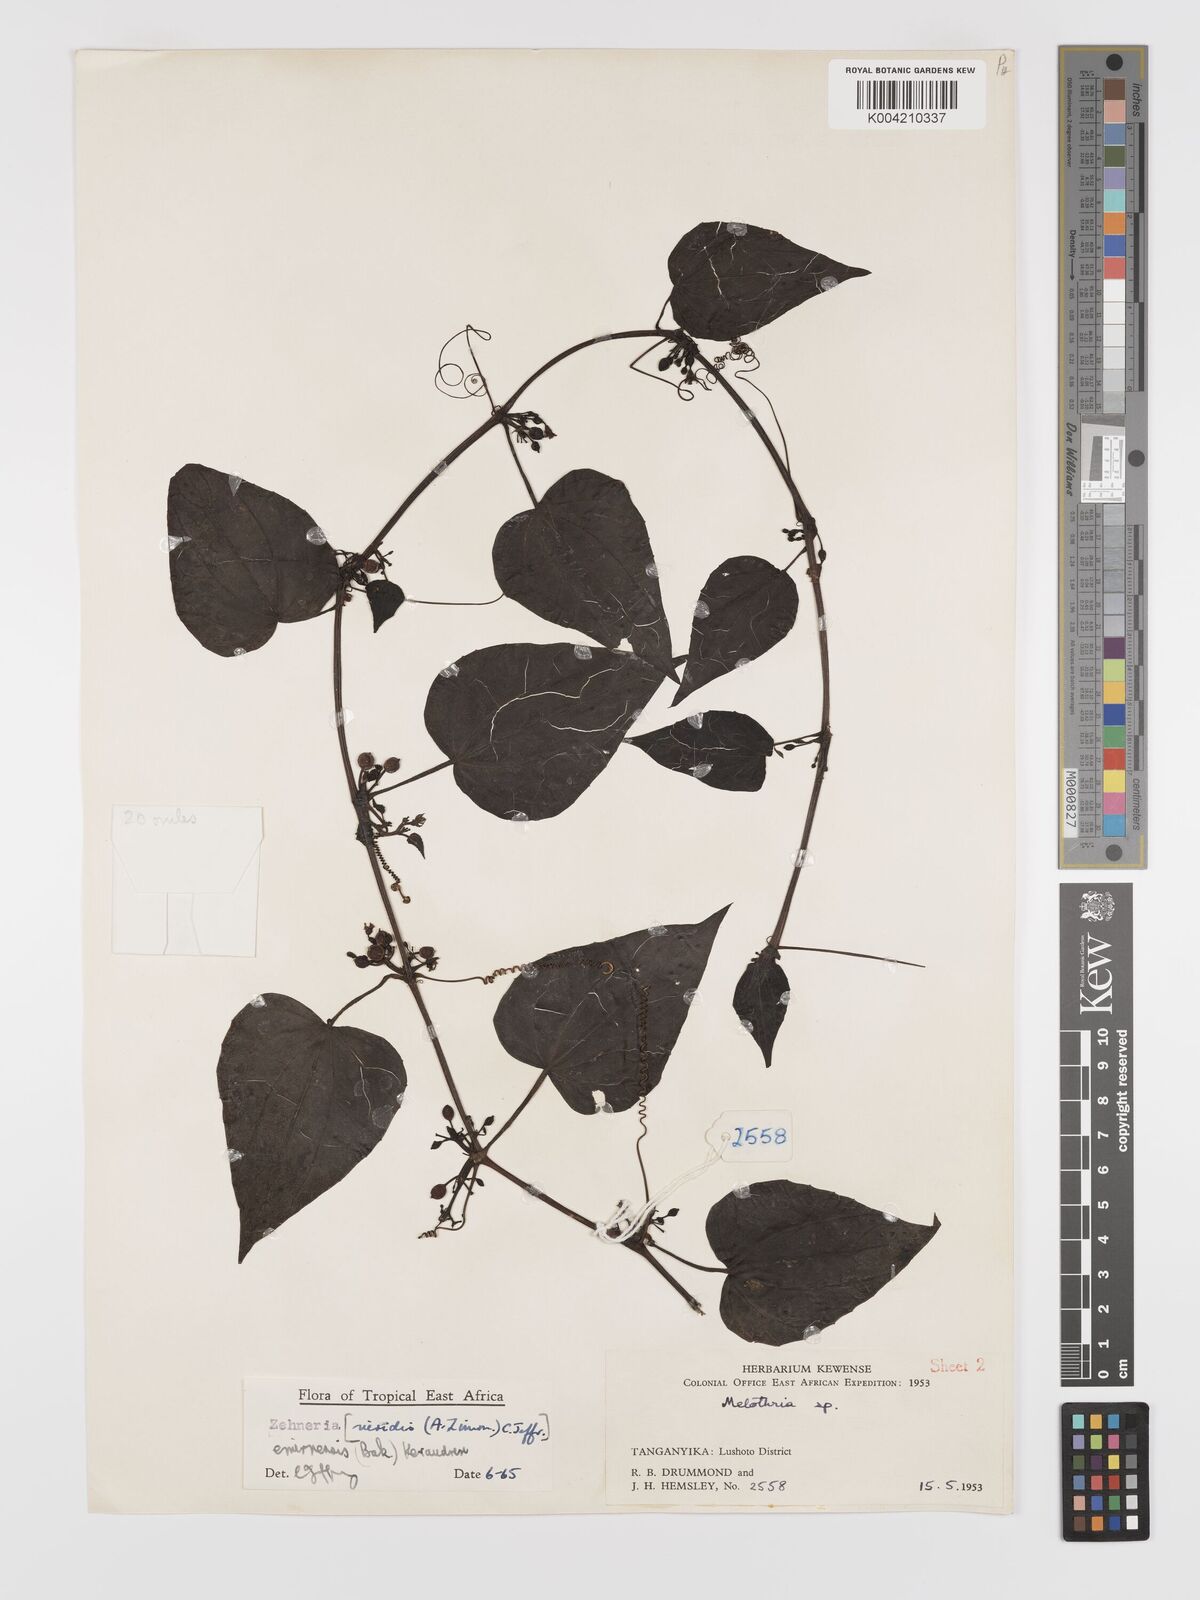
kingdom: Plantae
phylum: Tracheophyta
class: Magnoliopsida
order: Cucurbitales
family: Cucurbitaceae
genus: Zehneria
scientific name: Zehneria emirnensis
